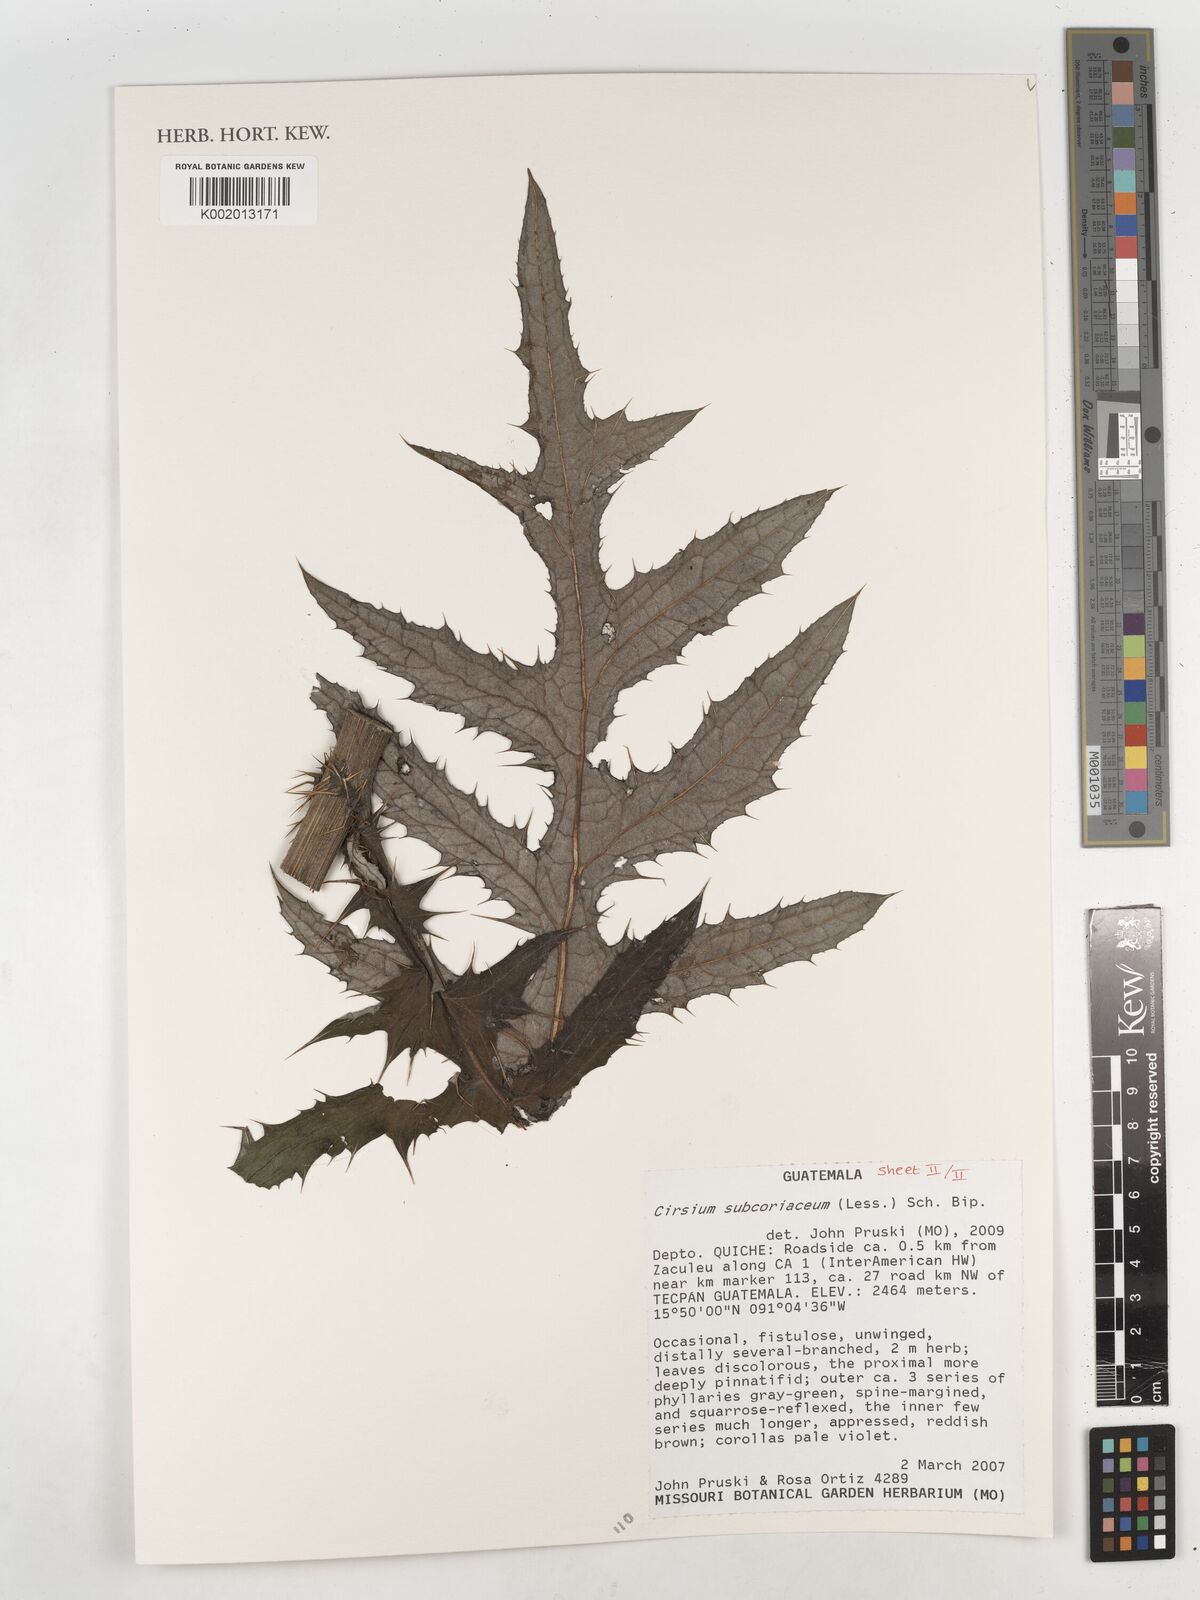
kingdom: Plantae
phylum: Tracheophyta
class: Magnoliopsida
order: Asterales
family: Asteraceae
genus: Cirsium
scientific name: Cirsium subcoriaceum
